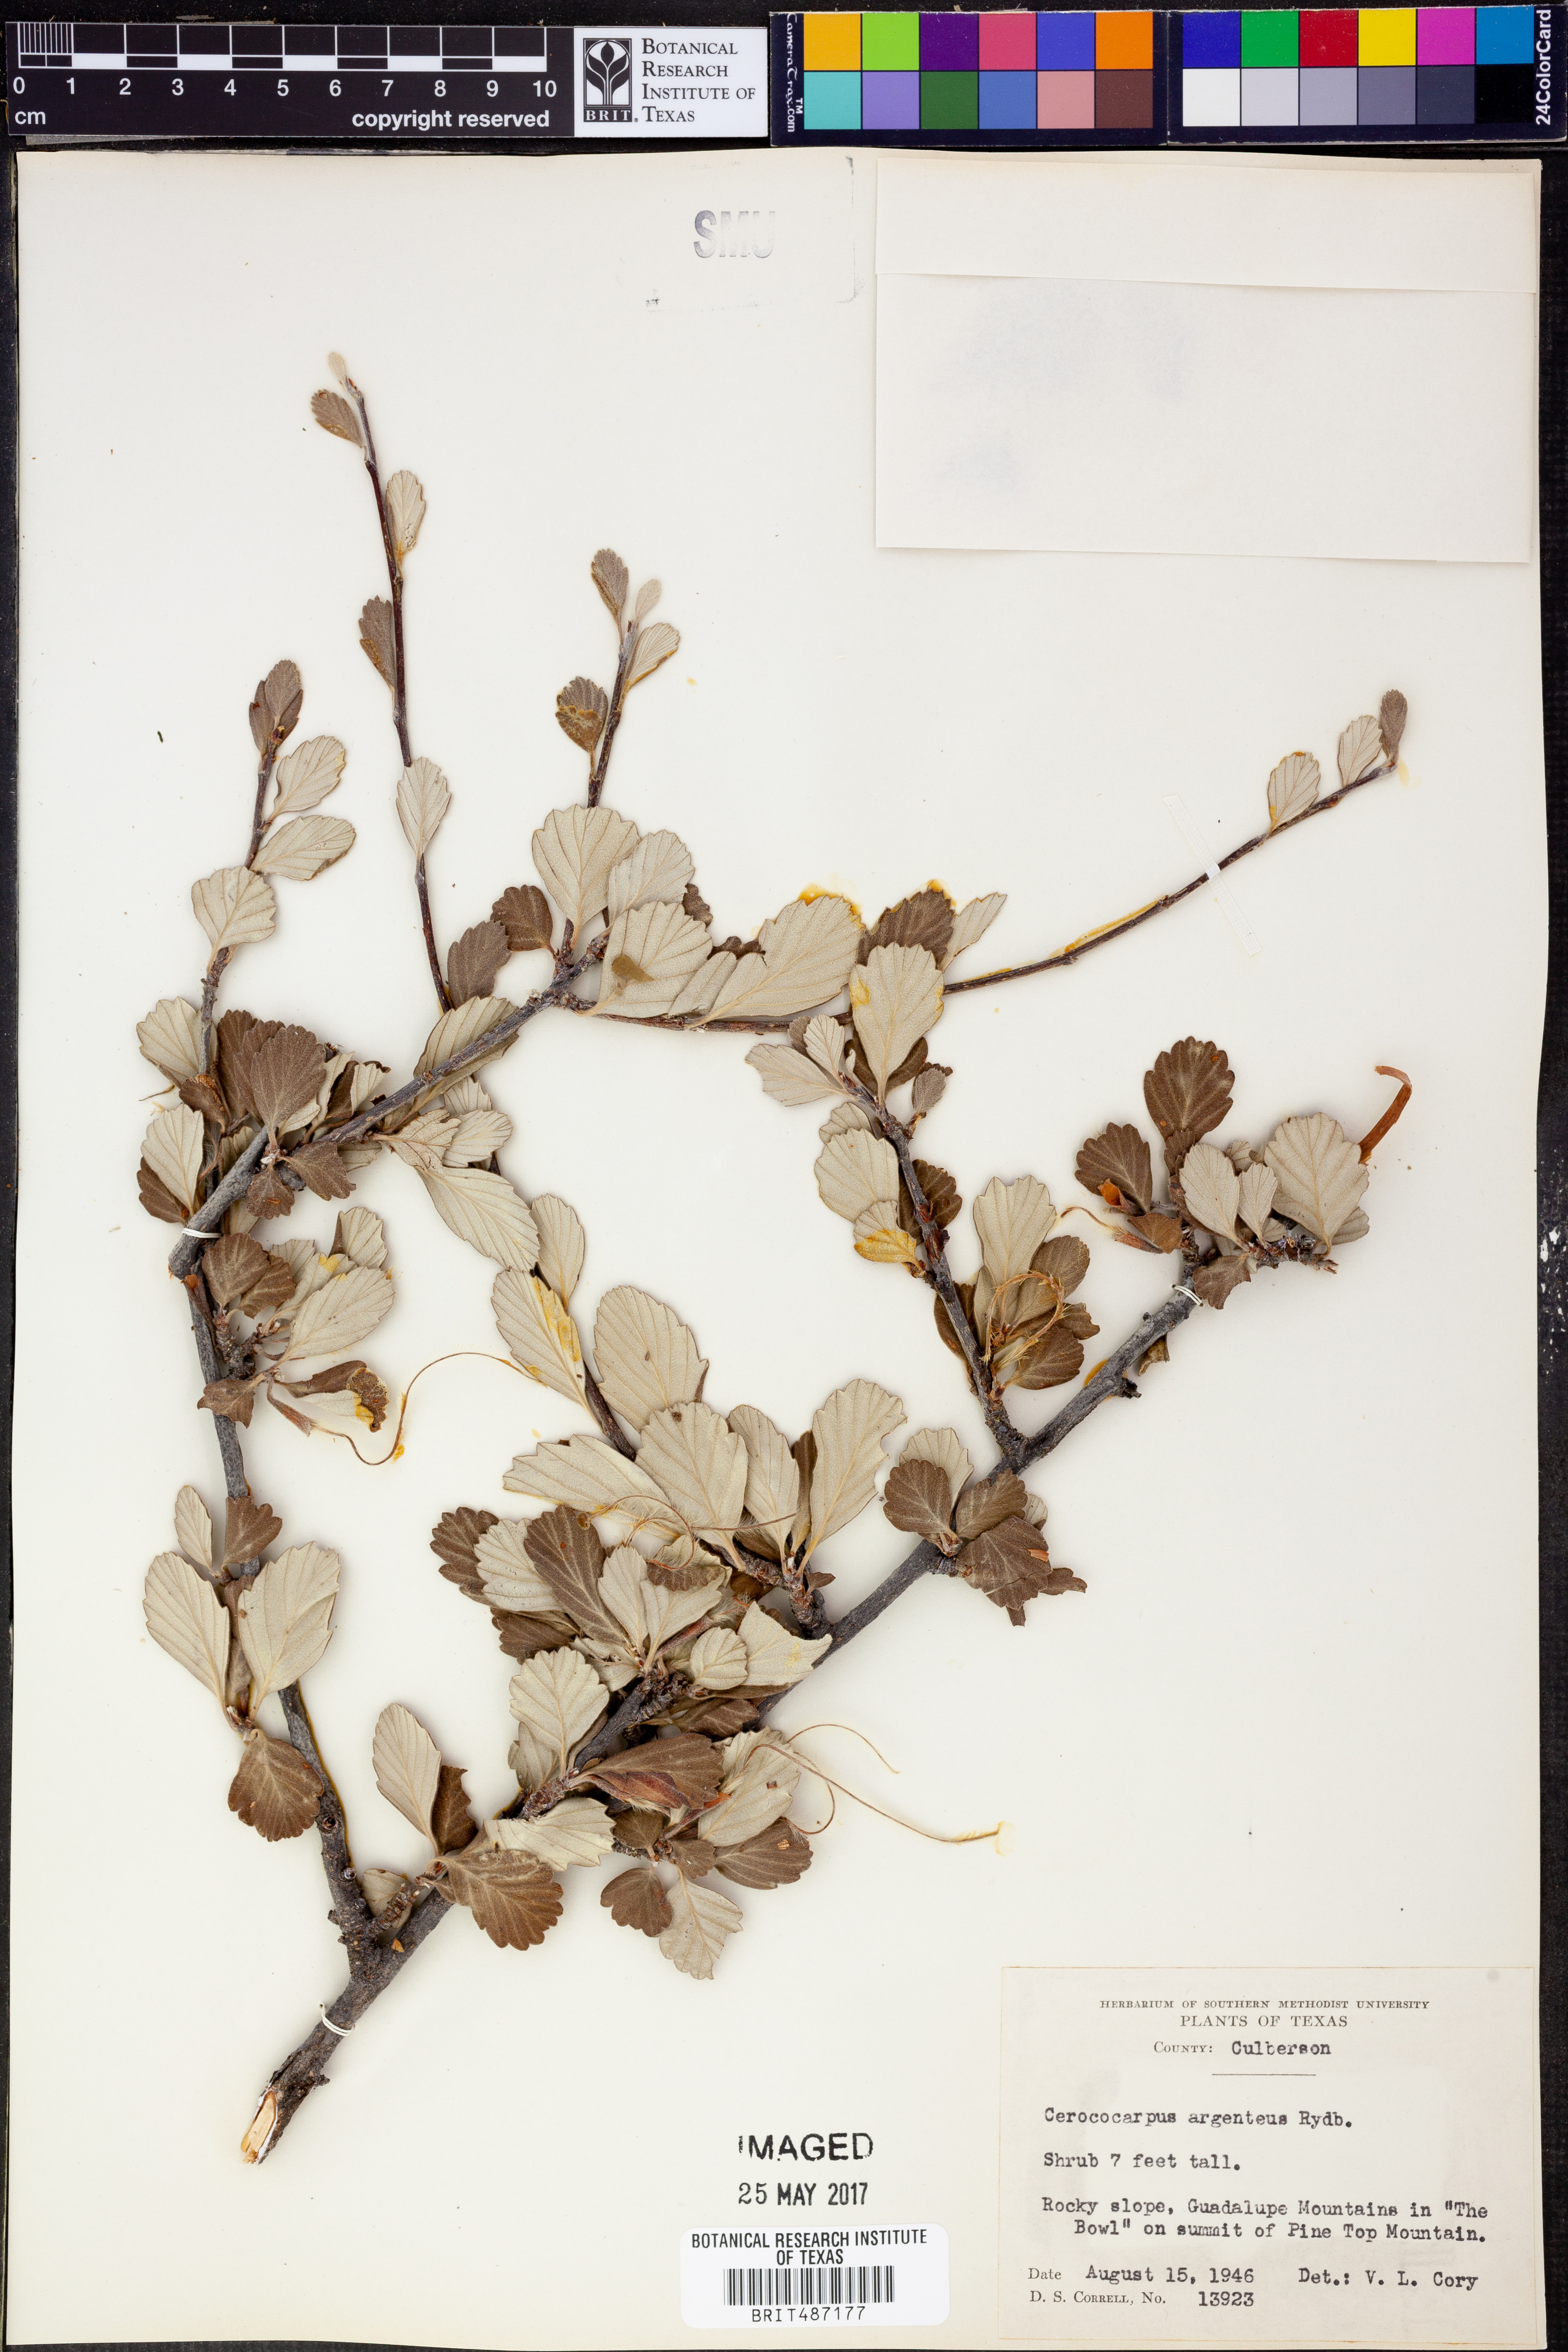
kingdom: Plantae
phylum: Tracheophyta
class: Magnoliopsida
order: Rosales
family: Rosaceae
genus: Cercocarpus
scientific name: Cercocarpus intricatus
